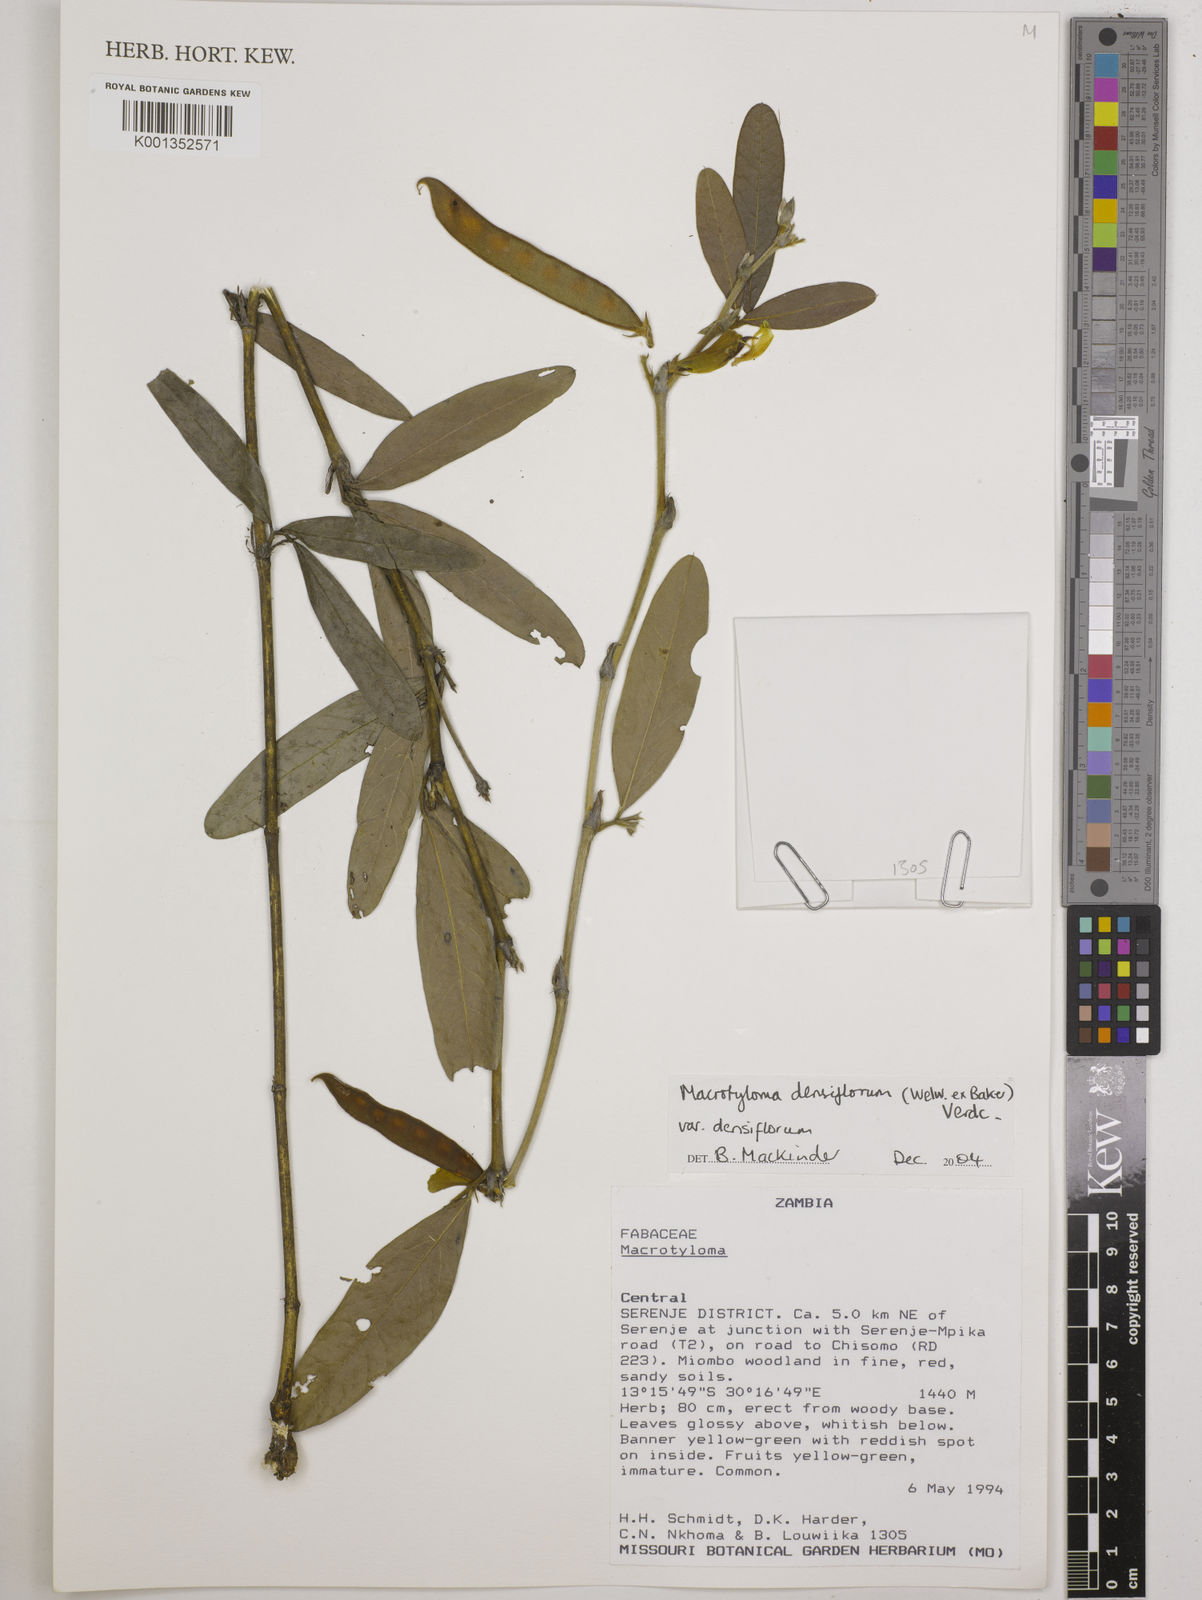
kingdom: Plantae
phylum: Tracheophyta
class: Magnoliopsida
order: Fabales
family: Fabaceae
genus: Macrotyloma
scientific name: Macrotyloma densiflorum
